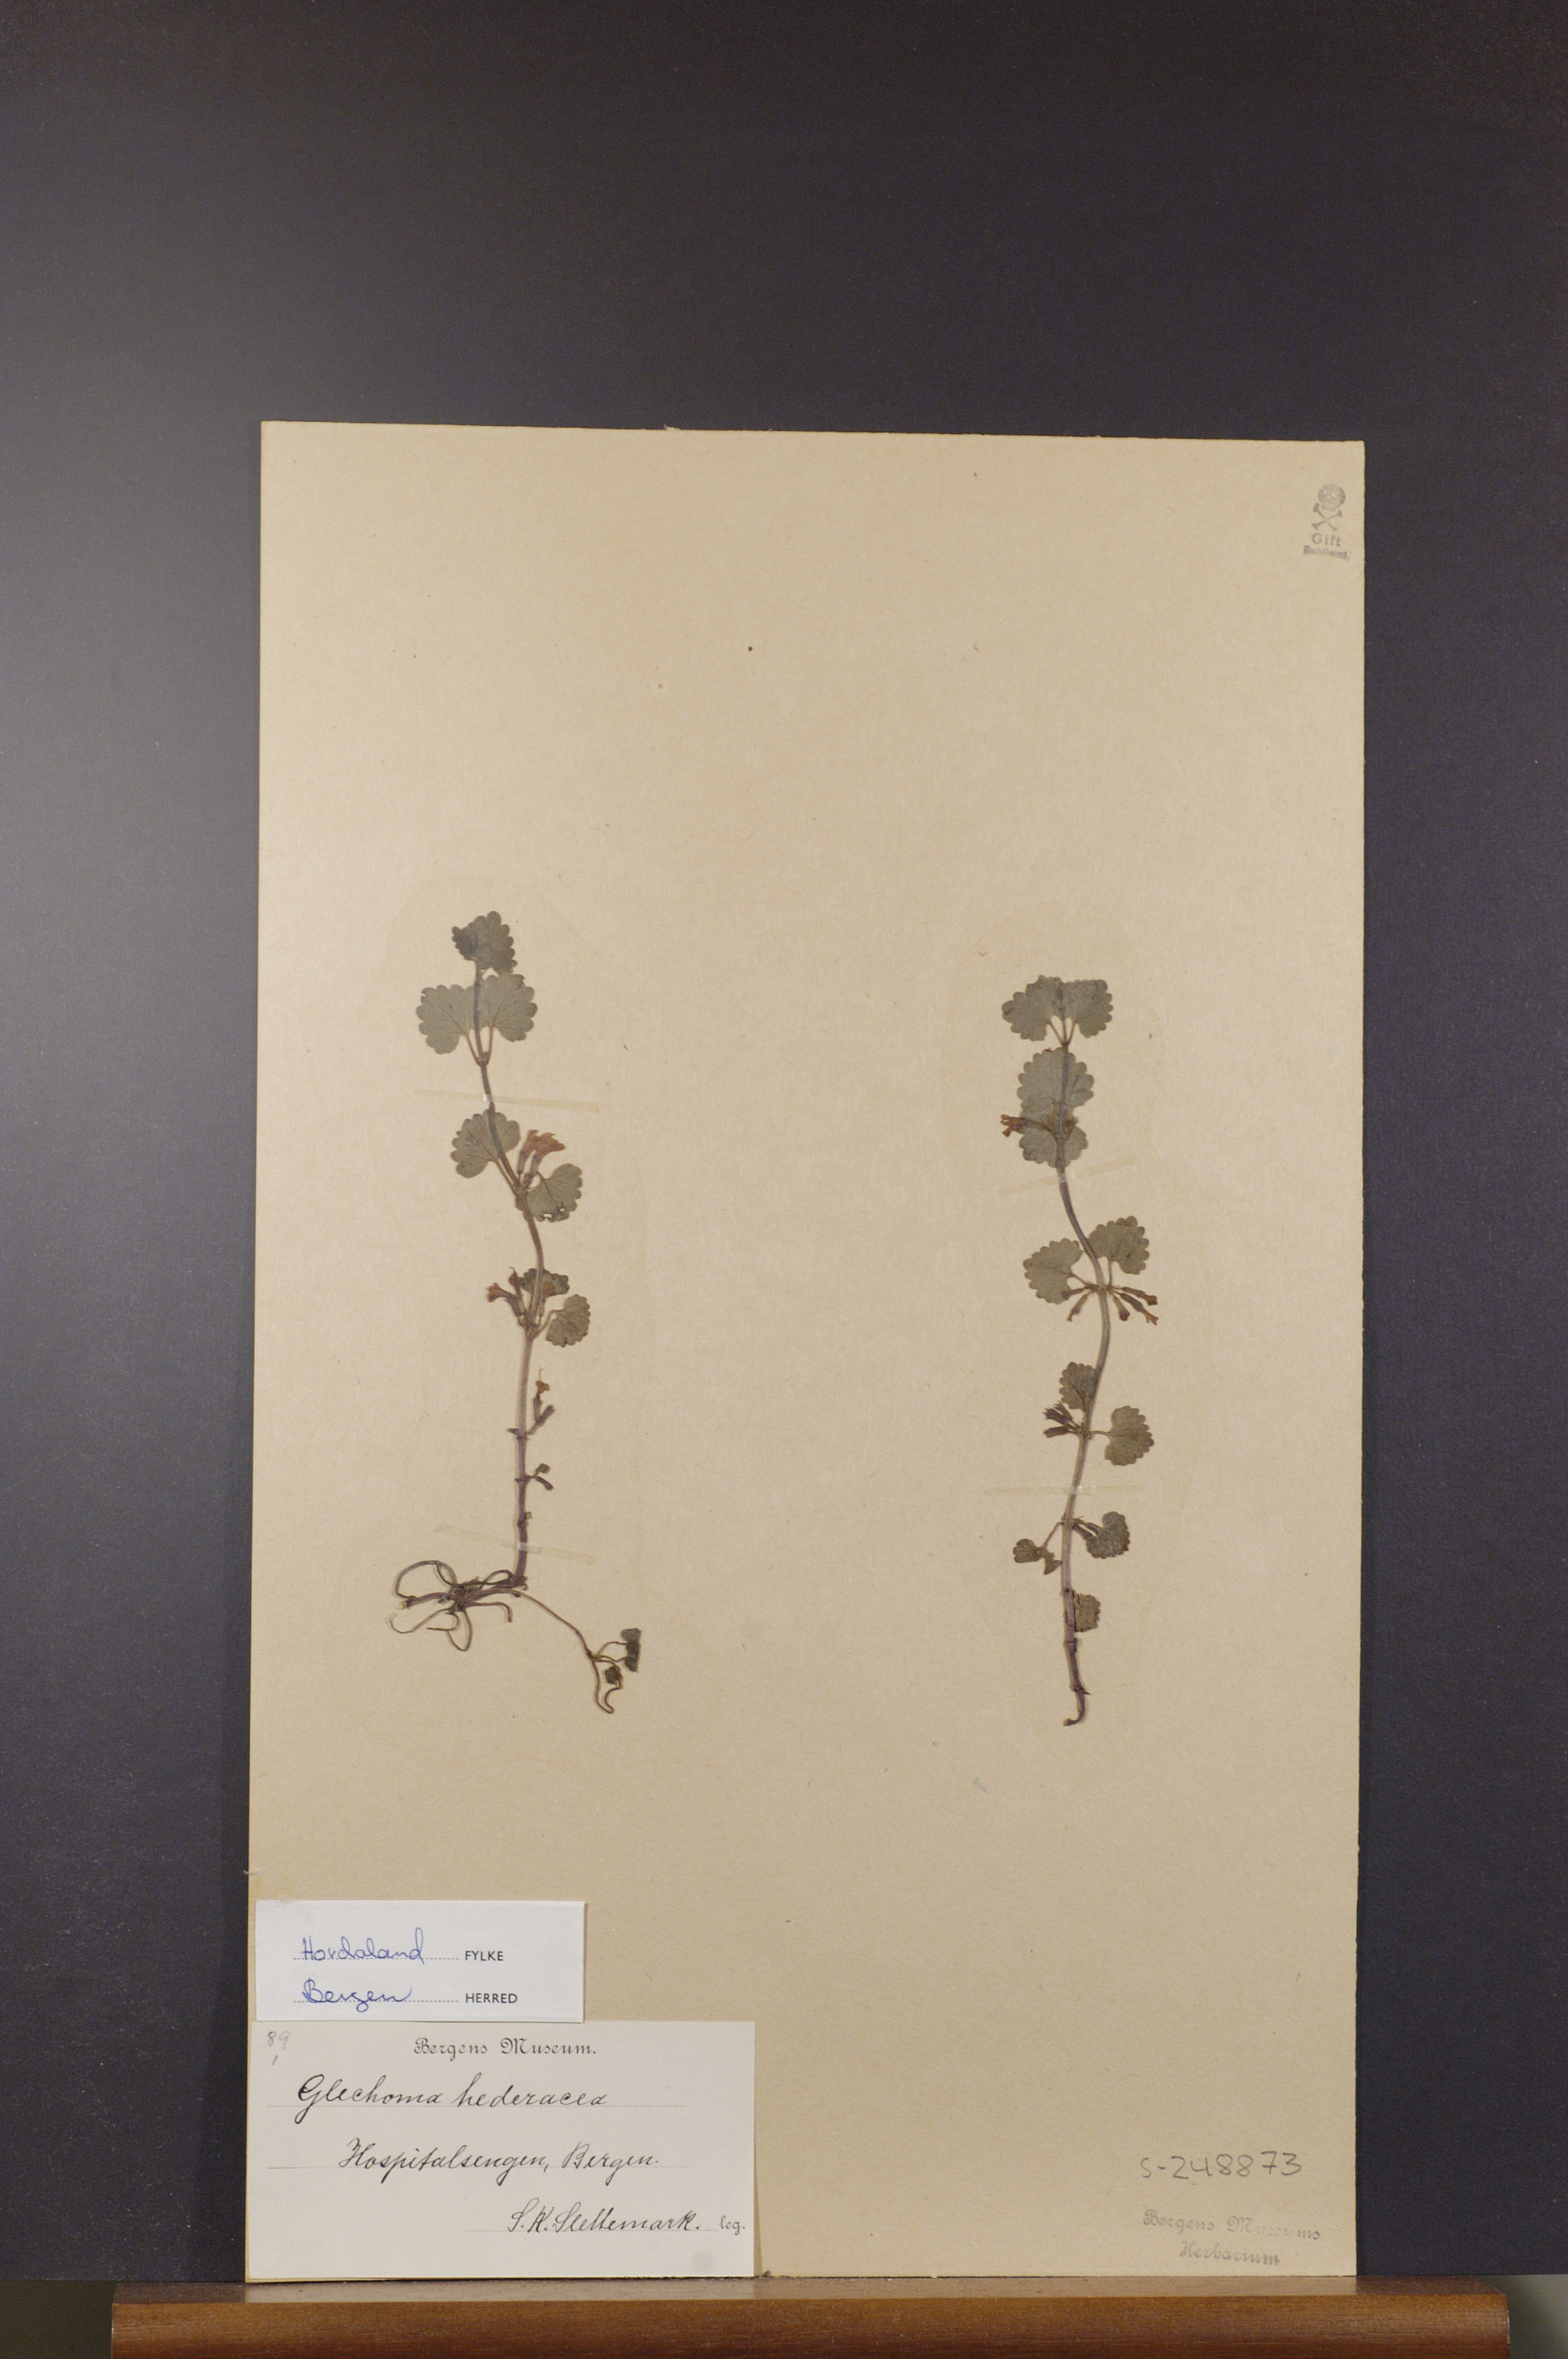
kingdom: Plantae
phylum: Tracheophyta
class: Magnoliopsida
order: Lamiales
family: Lamiaceae
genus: Glechoma
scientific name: Glechoma hederacea
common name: Ground ivy
